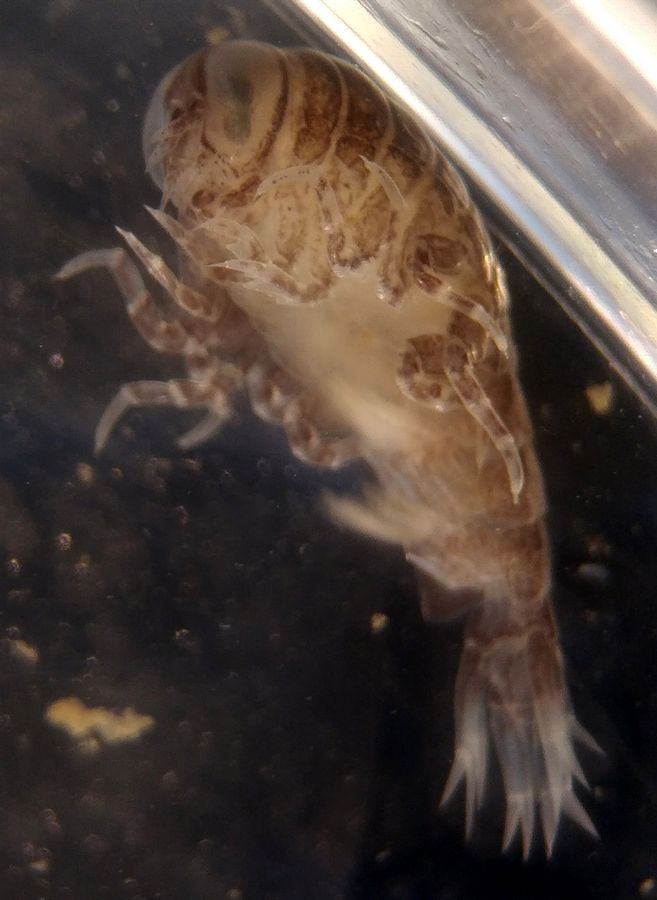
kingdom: Animalia
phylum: Arthropoda
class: Malacostraca
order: Amphipoda
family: Hyperiidae
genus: Hyperia
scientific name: Hyperia galba
